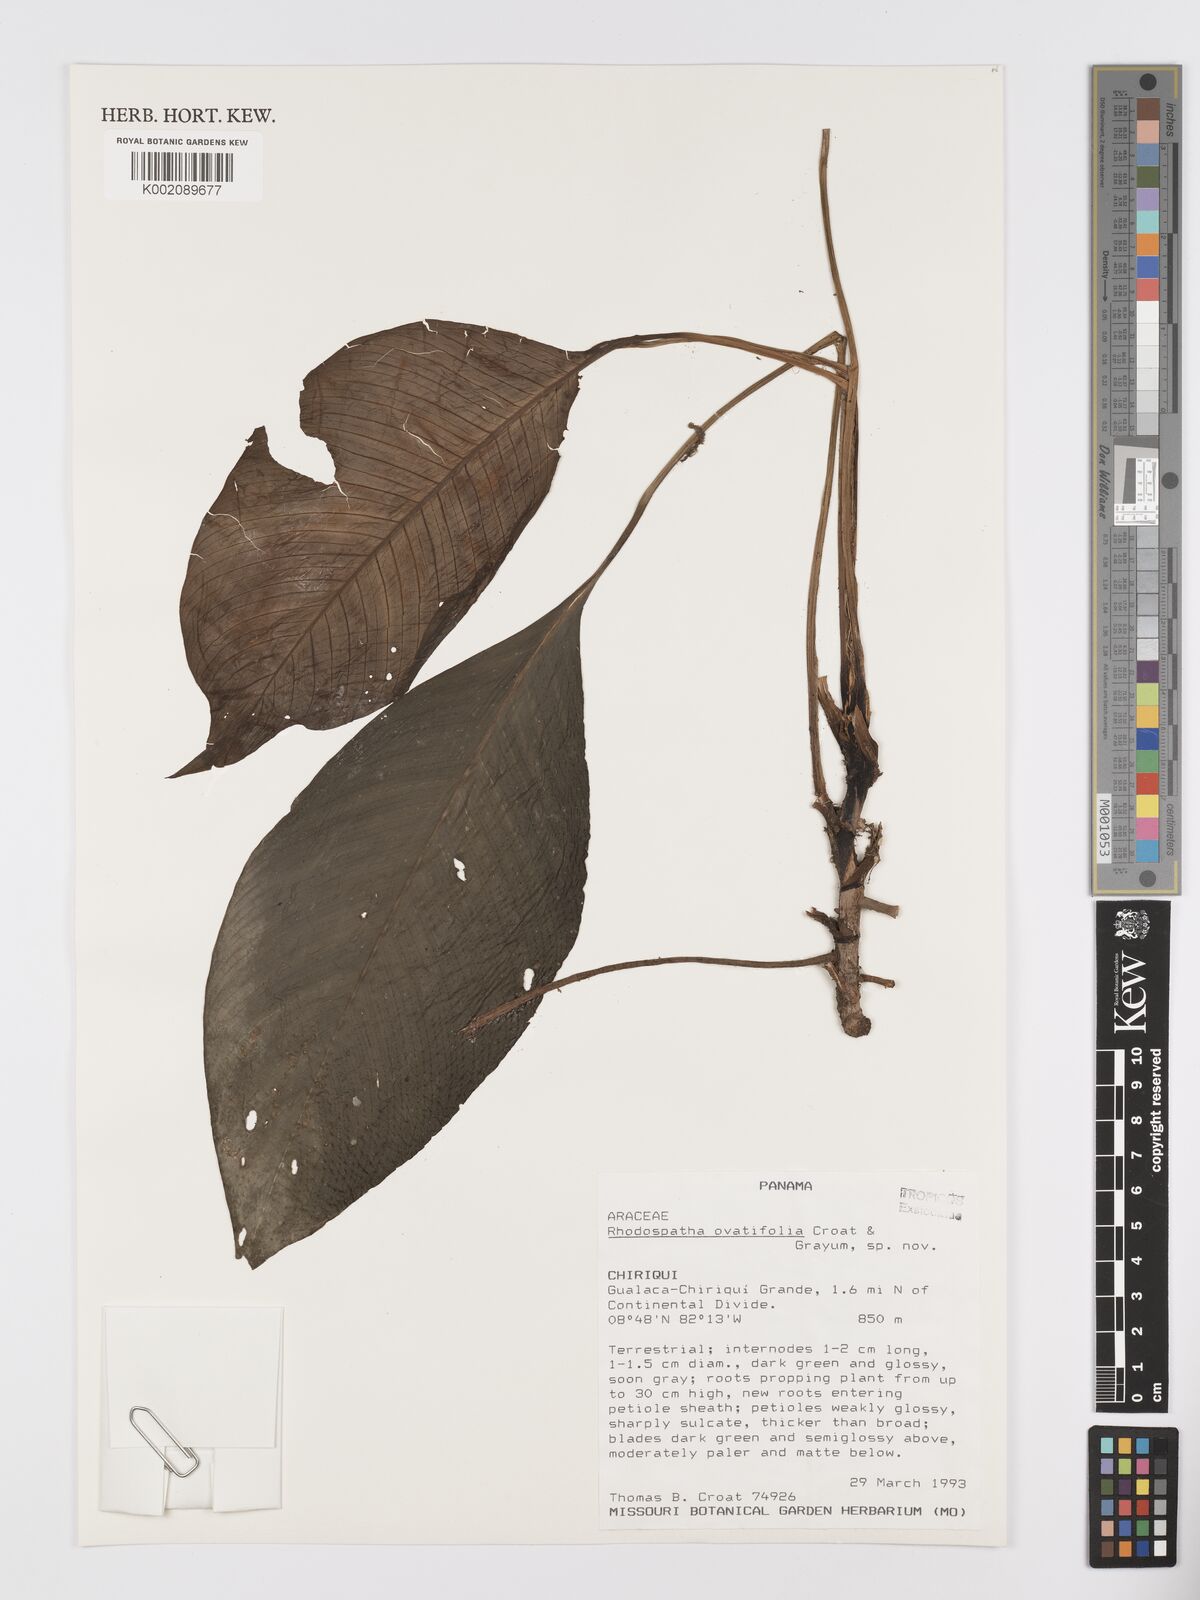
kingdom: Plantae
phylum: Tracheophyta
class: Liliopsida
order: Alismatales
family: Araceae
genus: Rhodospatha
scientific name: Rhodospatha
